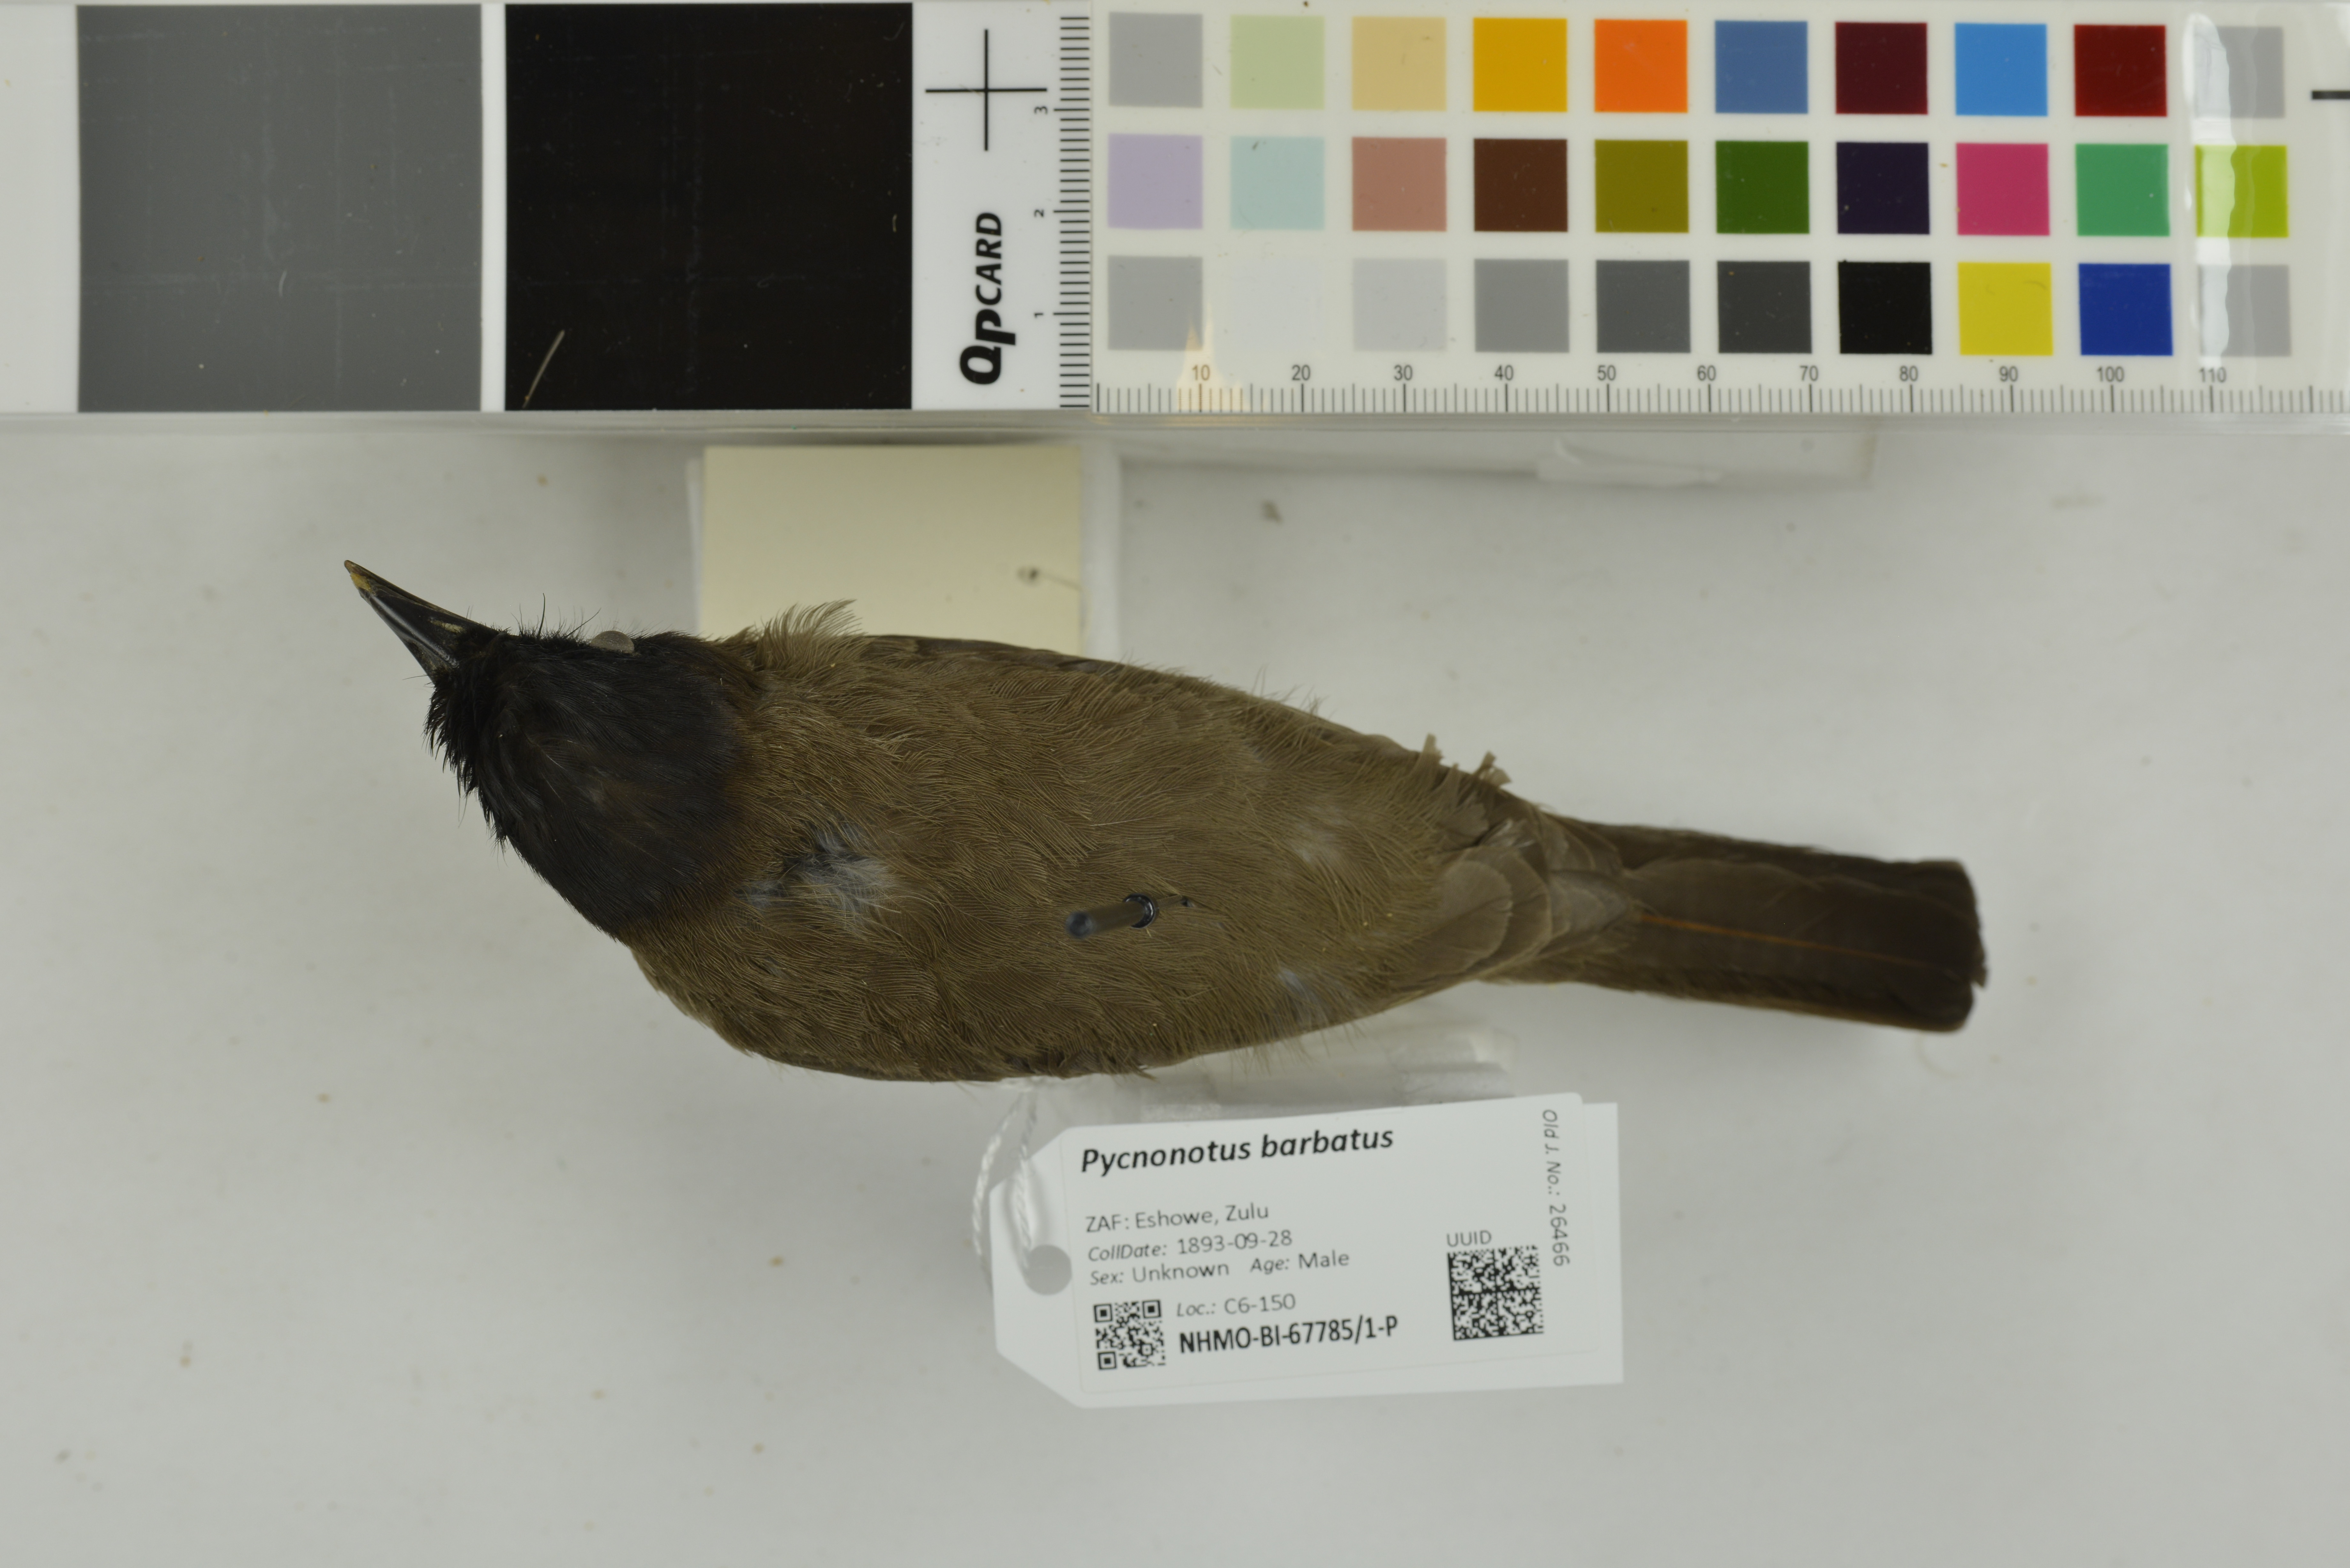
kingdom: Animalia
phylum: Chordata
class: Aves
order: Passeriformes
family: Pycnonotidae
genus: Pycnonotus
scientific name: Pycnonotus barbatus
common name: Common bulbul
